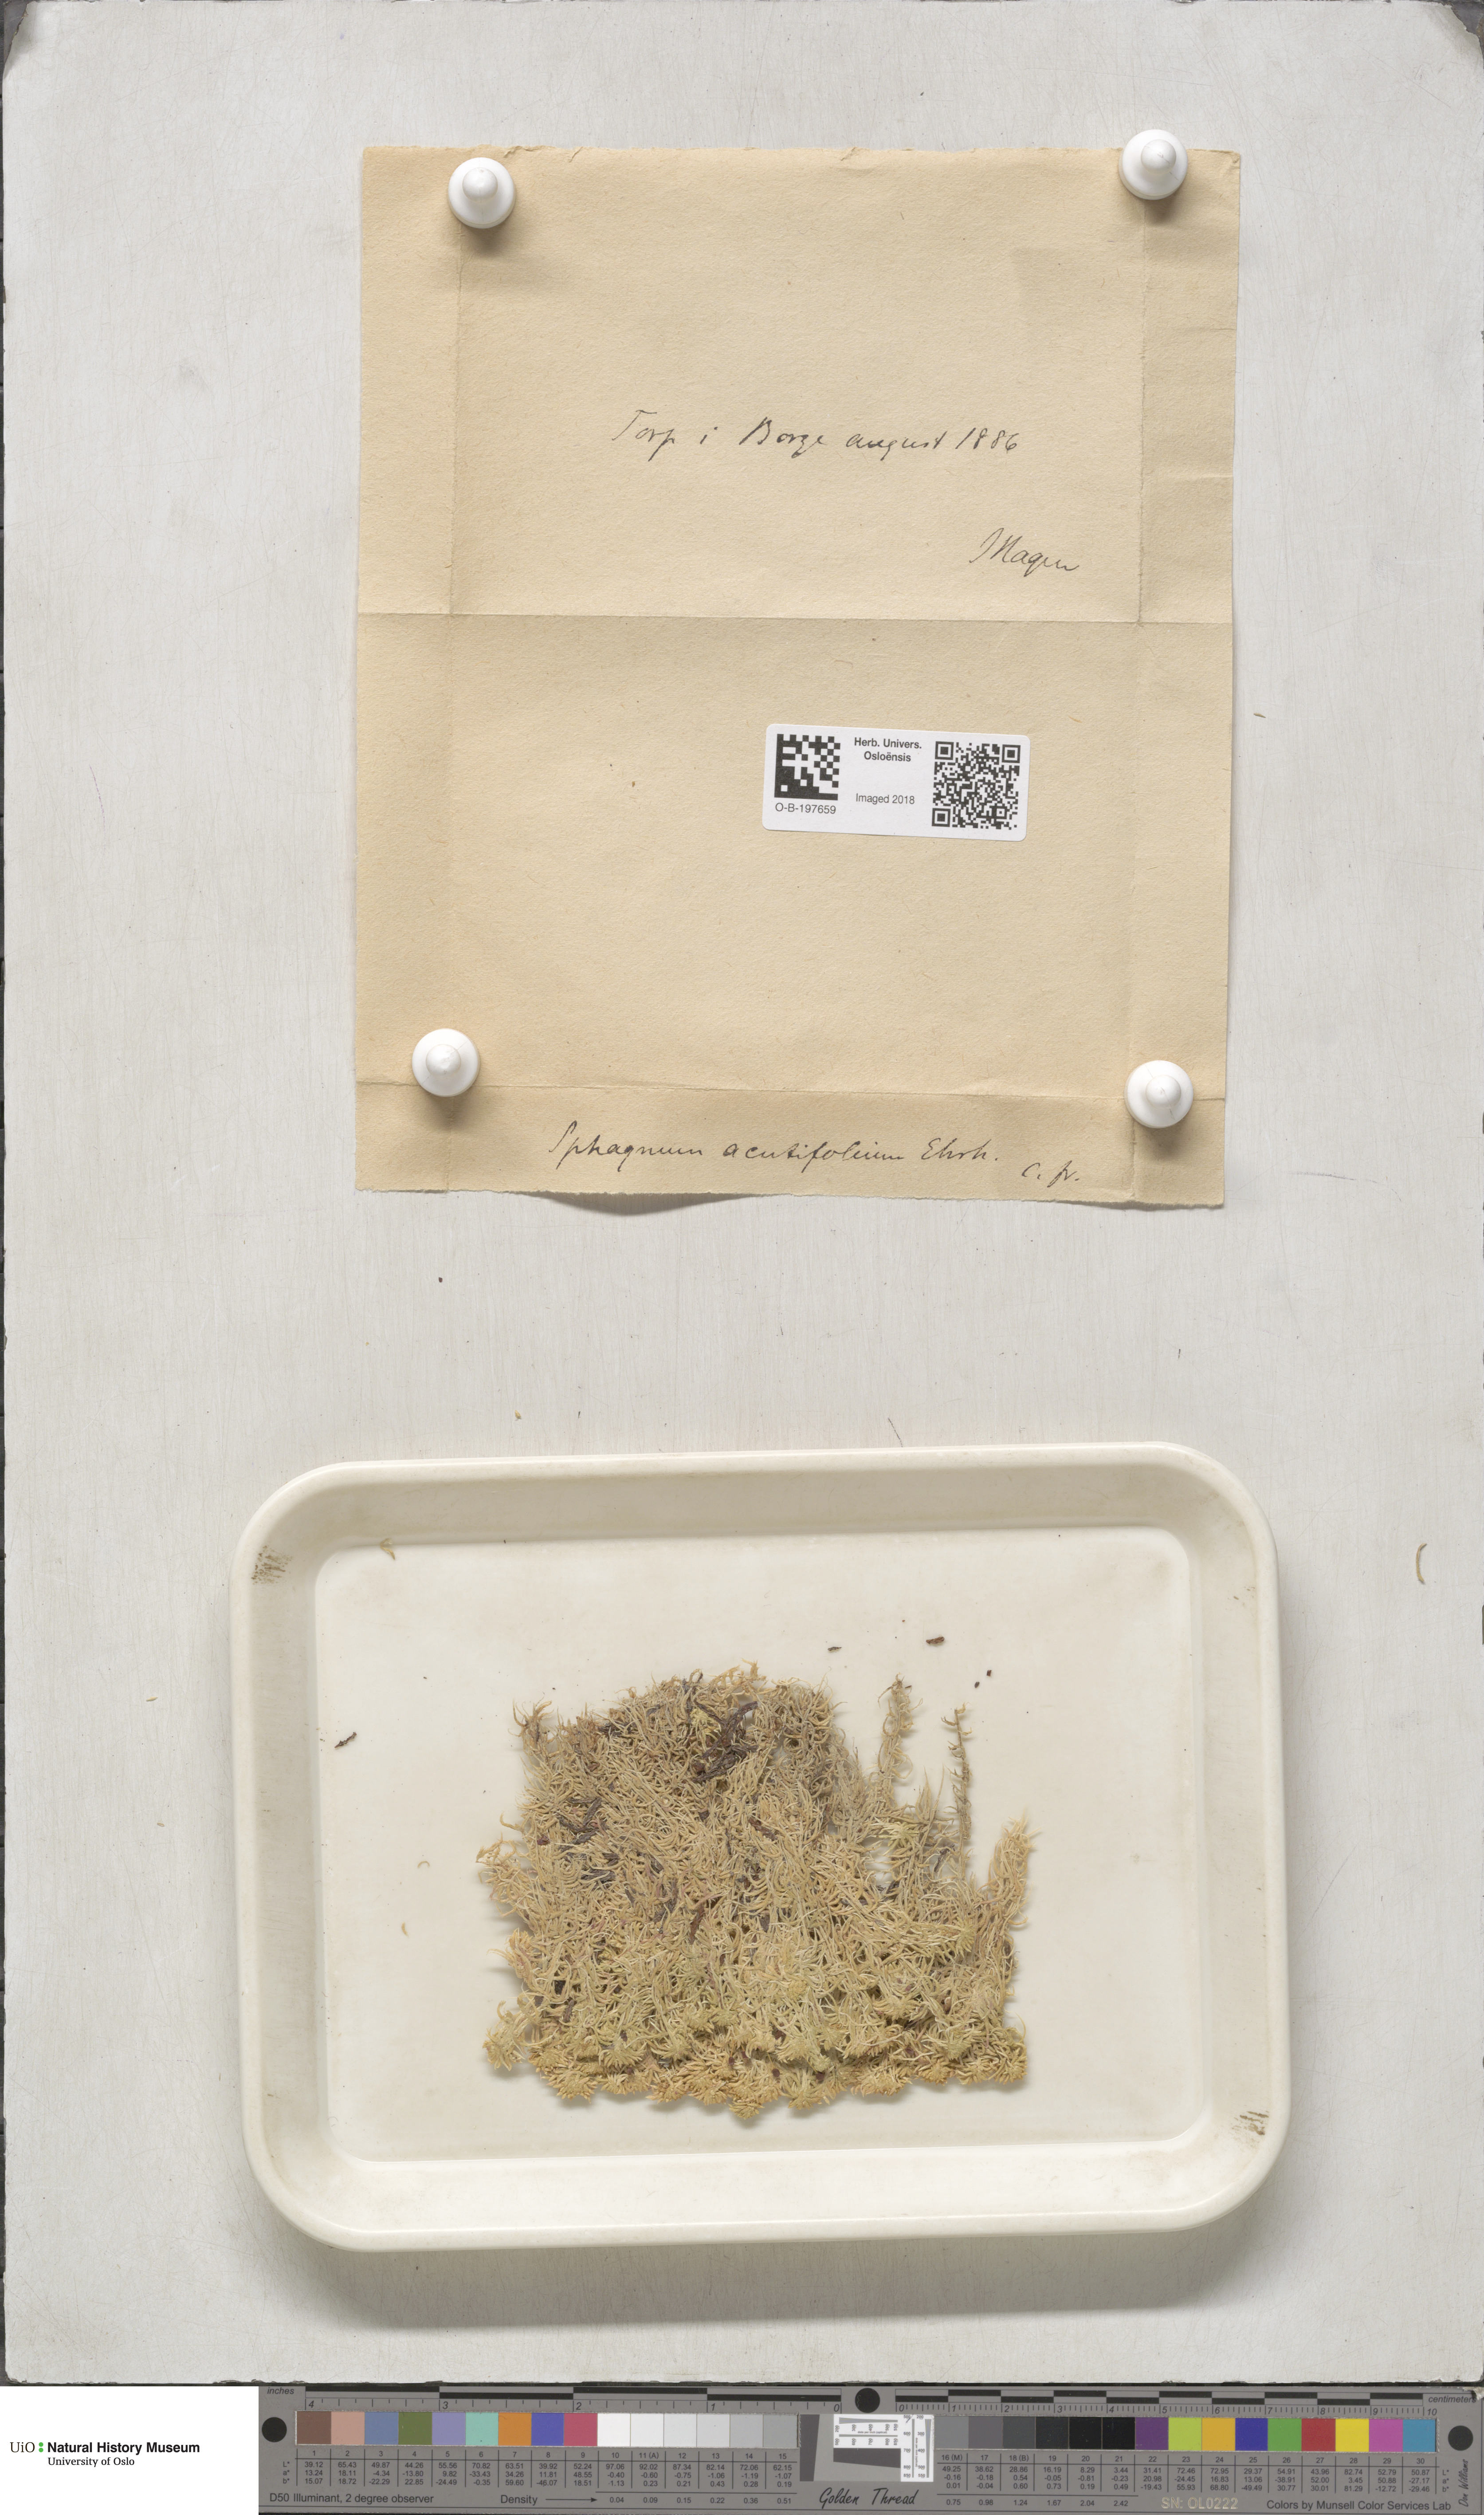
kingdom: Plantae
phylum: Bryophyta
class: Sphagnopsida
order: Sphagnales
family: Sphagnaceae
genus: Sphagnum
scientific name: Sphagnum capillifolium
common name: Small red peat moss
